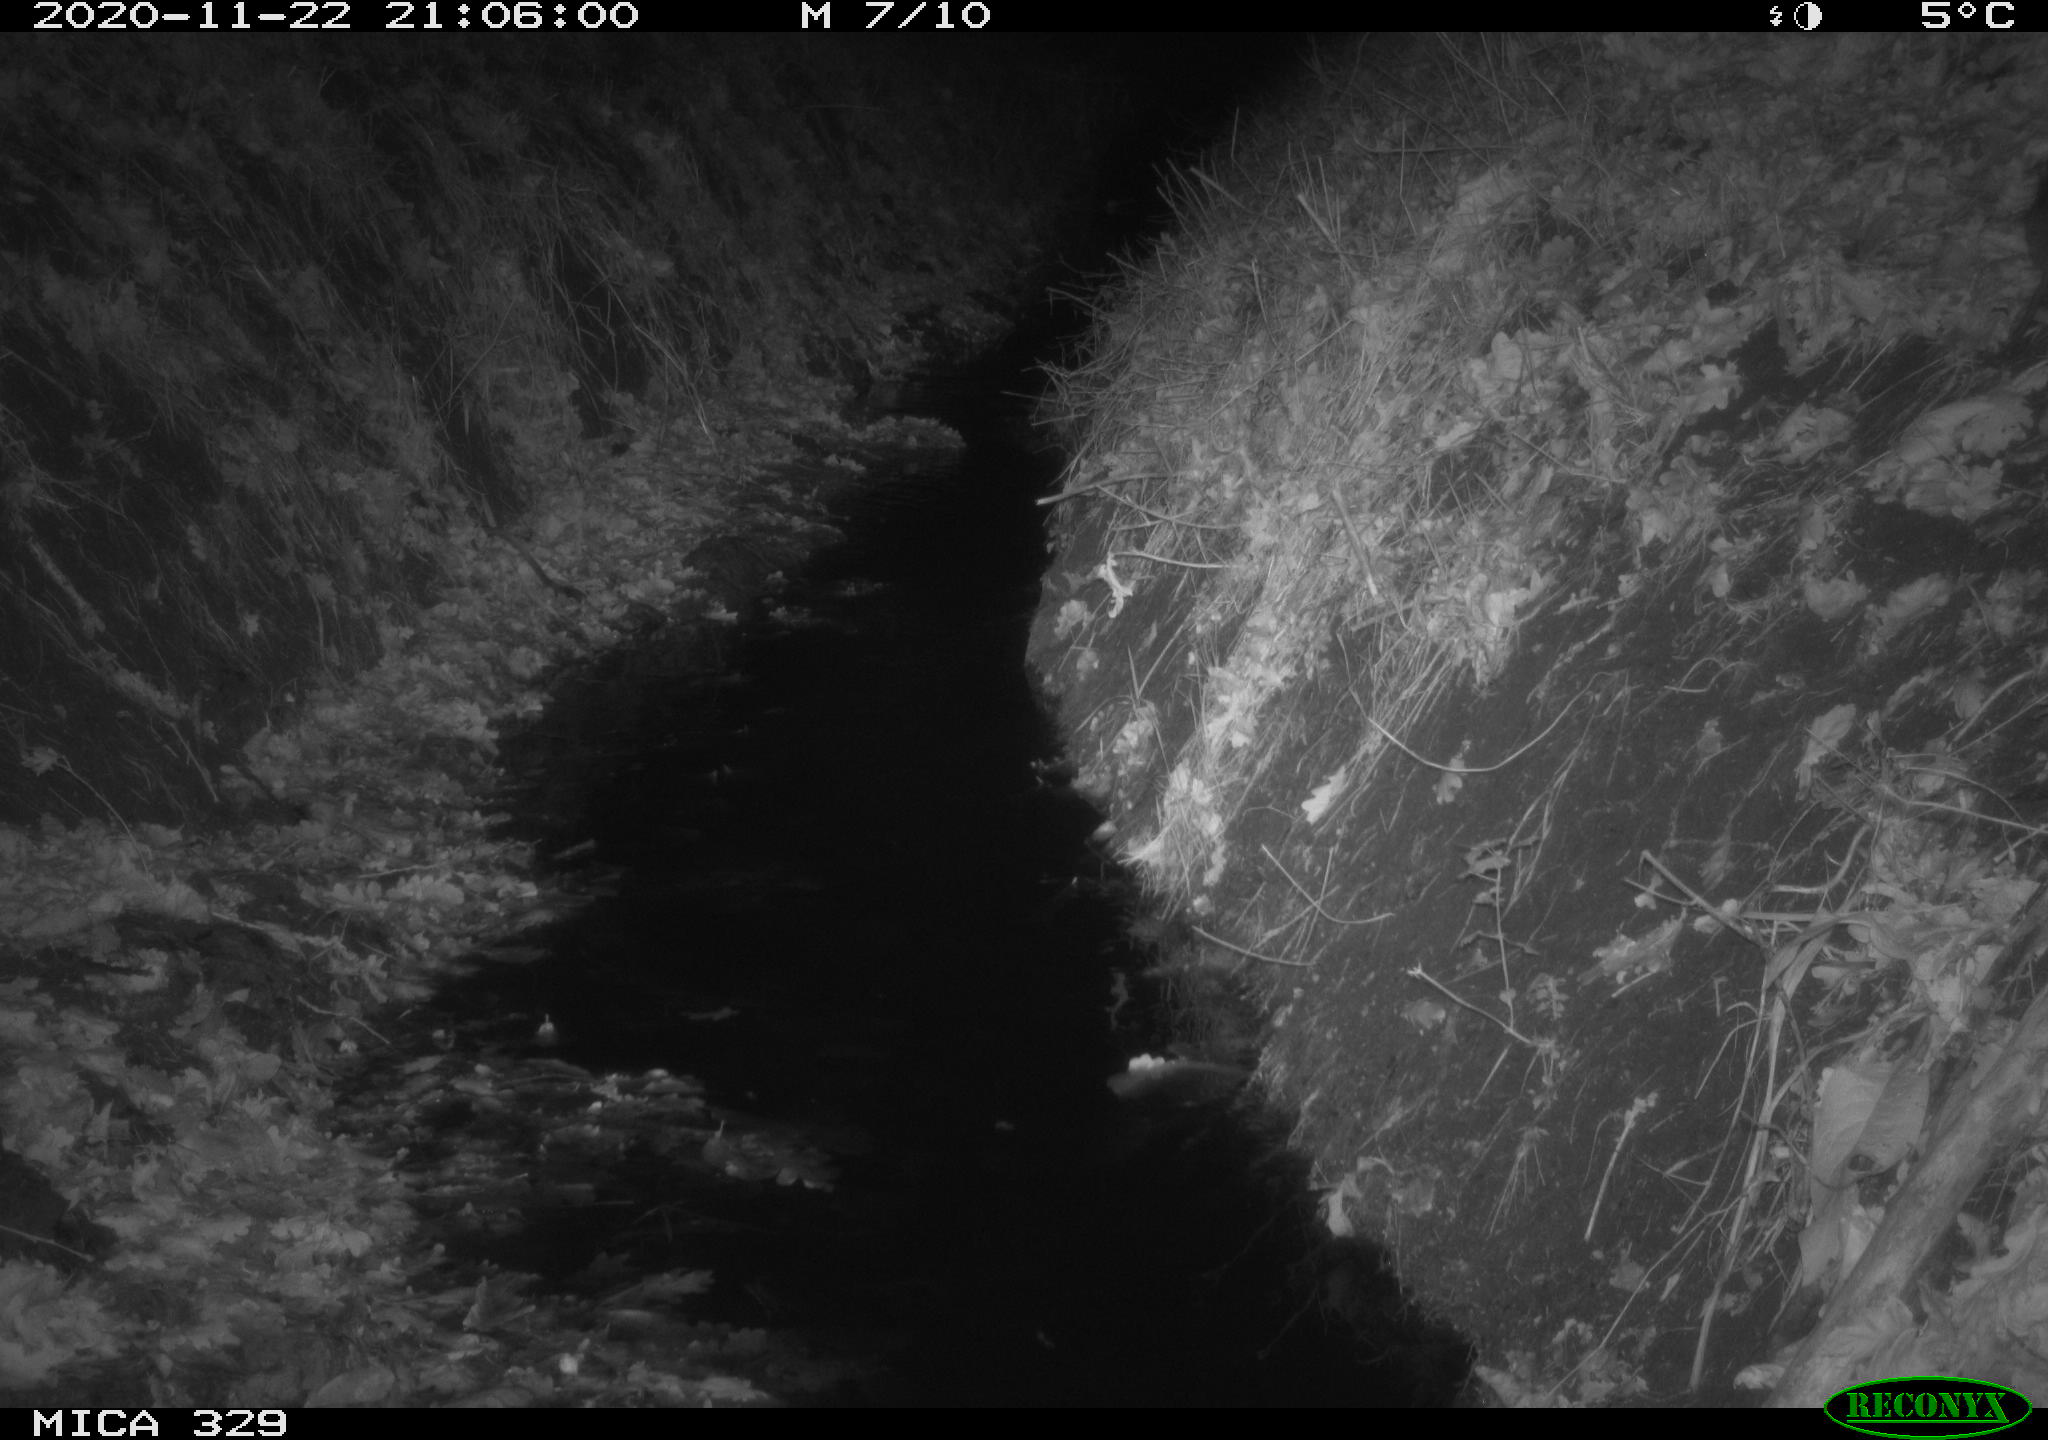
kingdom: Animalia
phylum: Chordata
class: Mammalia
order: Rodentia
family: Muridae
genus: Rattus
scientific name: Rattus norvegicus
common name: Brown rat
